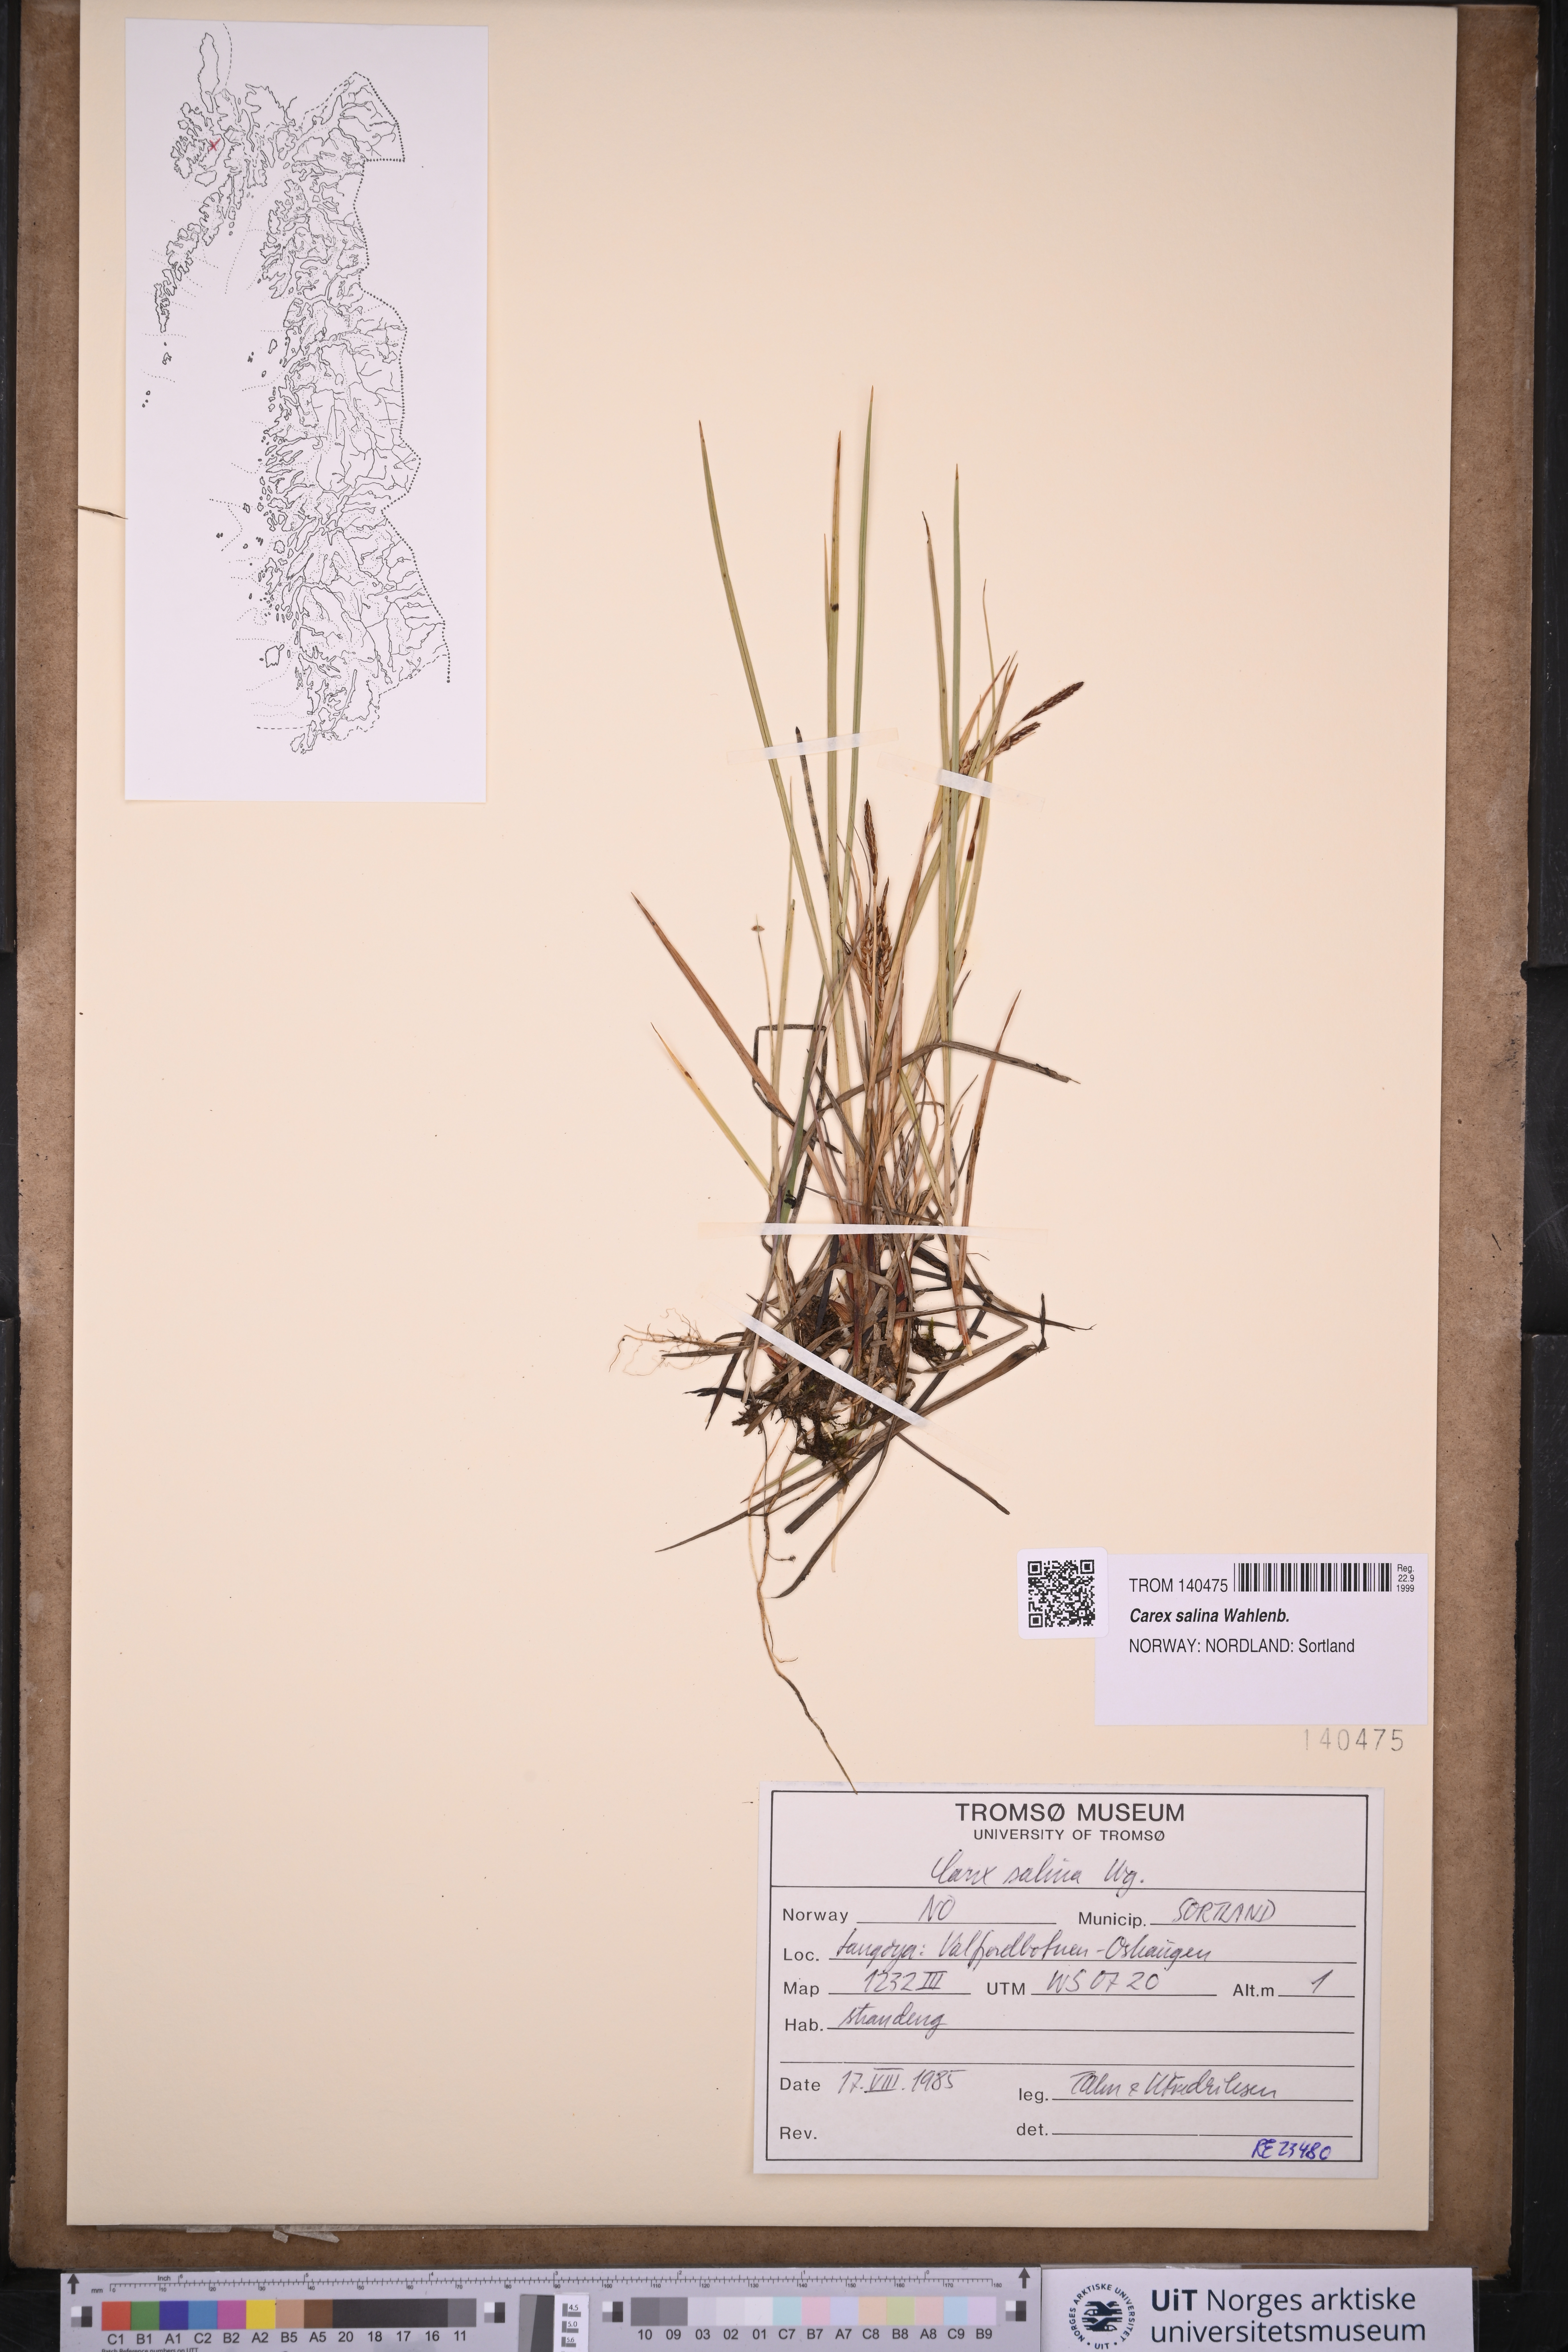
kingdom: Plantae
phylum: Tracheophyta
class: Liliopsida
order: Poales
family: Cyperaceae
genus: Carex
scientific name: Carex salina
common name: Saltmarsh sedge
